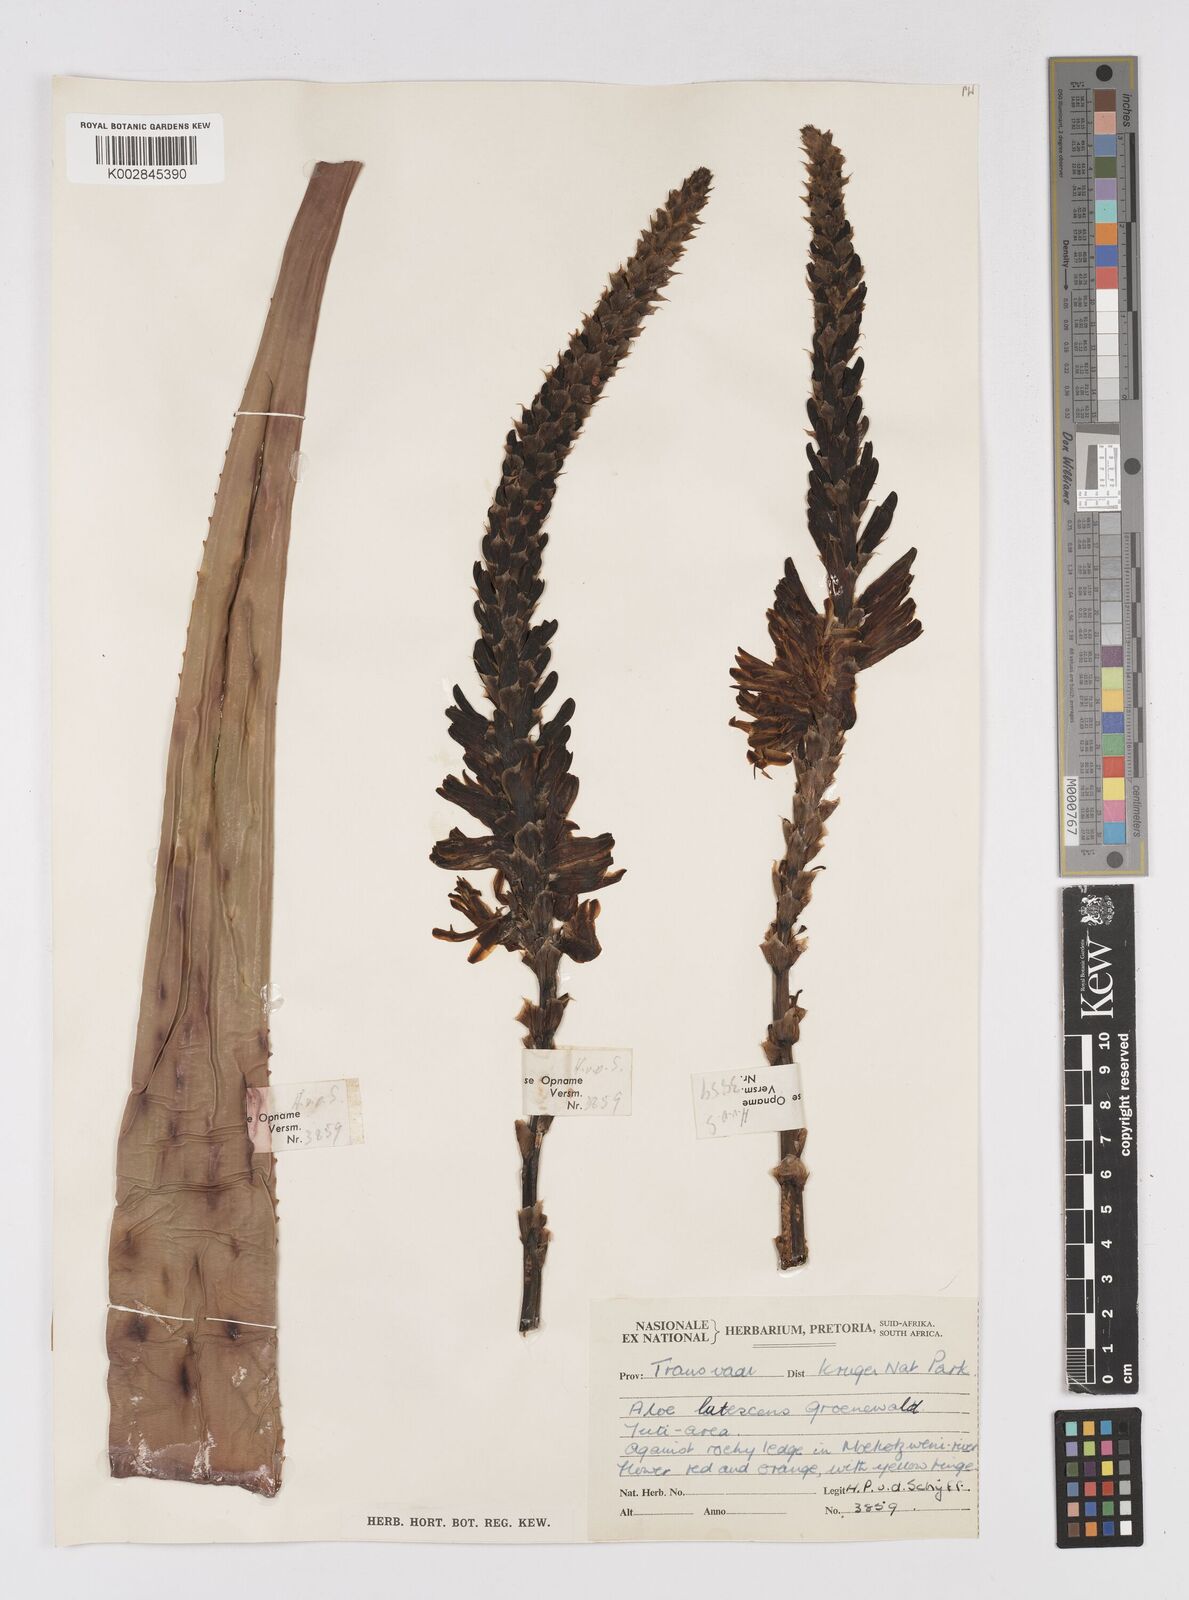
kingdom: Plantae
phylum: Tracheophyta
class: Liliopsida
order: Asparagales
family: Asphodelaceae
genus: Aloe
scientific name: Aloe lutescens
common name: Malapati aloe
